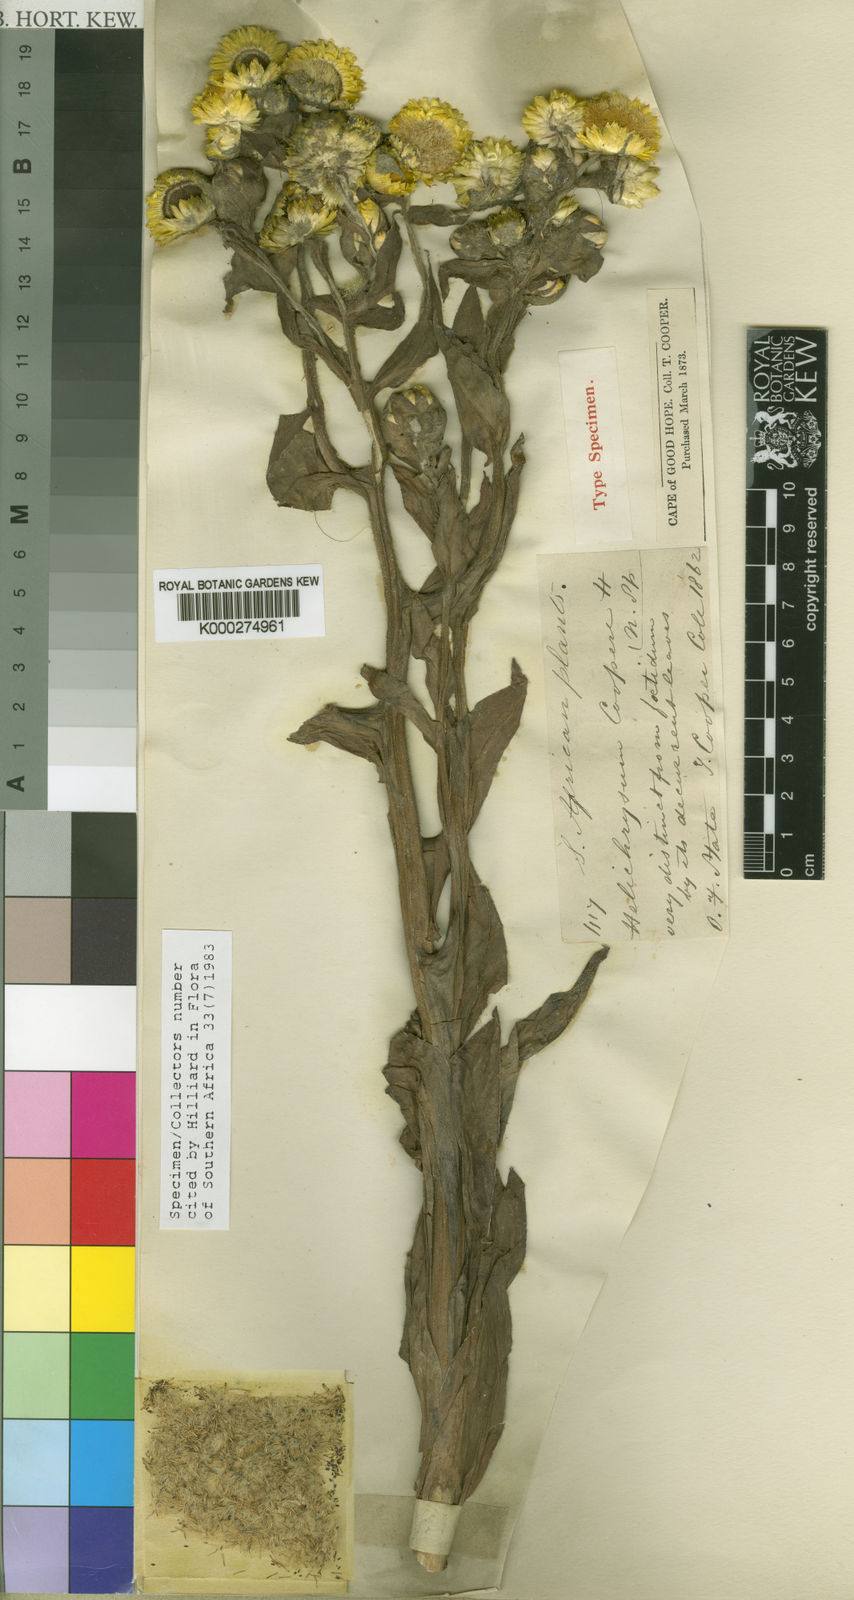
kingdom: Plantae
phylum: Tracheophyta
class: Magnoliopsida
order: Asterales
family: Asteraceae
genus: Helichrysum
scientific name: Helichrysum cooperi
